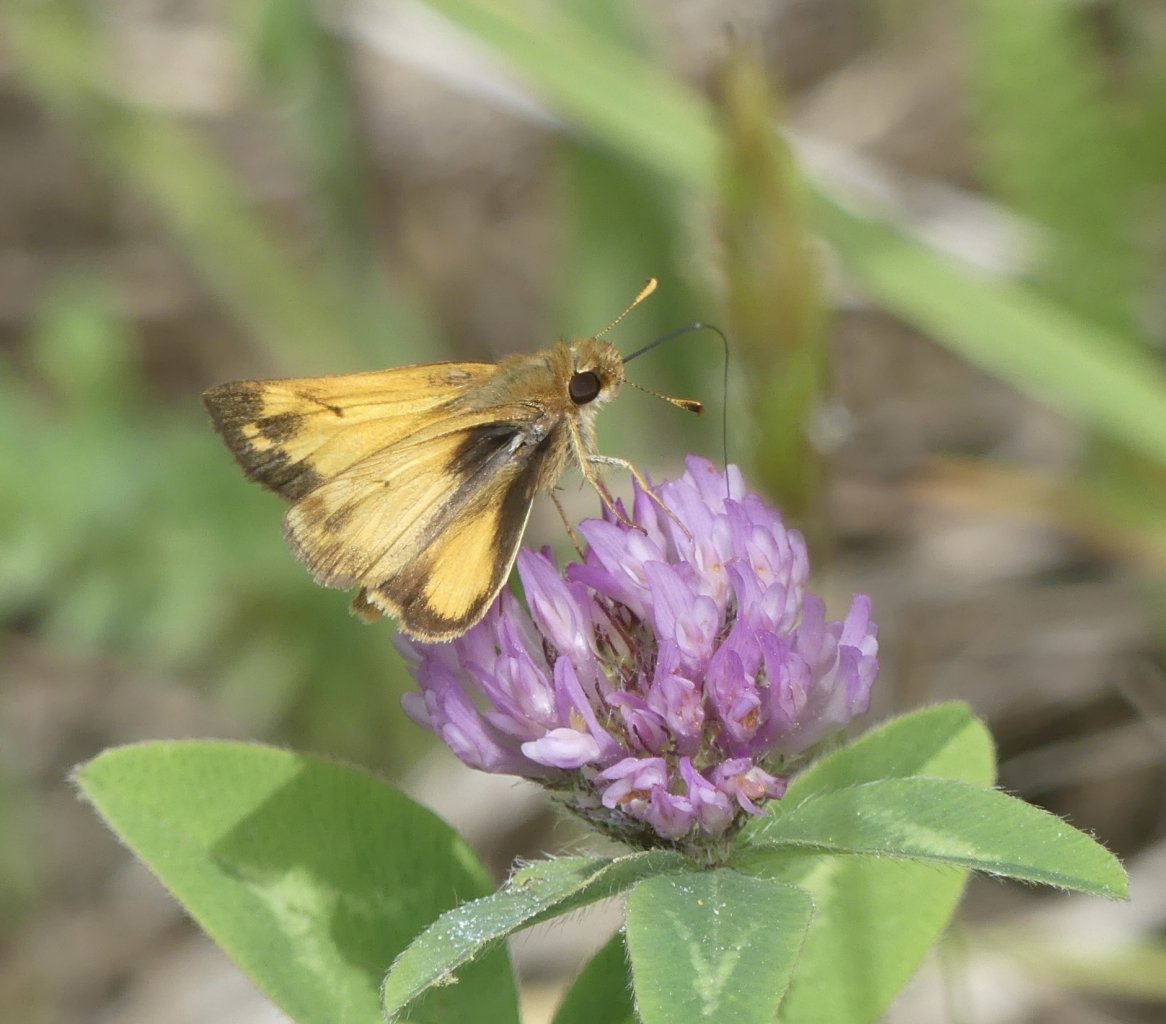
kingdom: Animalia
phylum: Arthropoda
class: Insecta
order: Lepidoptera
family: Hesperiidae
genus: Lon
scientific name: Lon zabulon
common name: Zabulon Skipper
